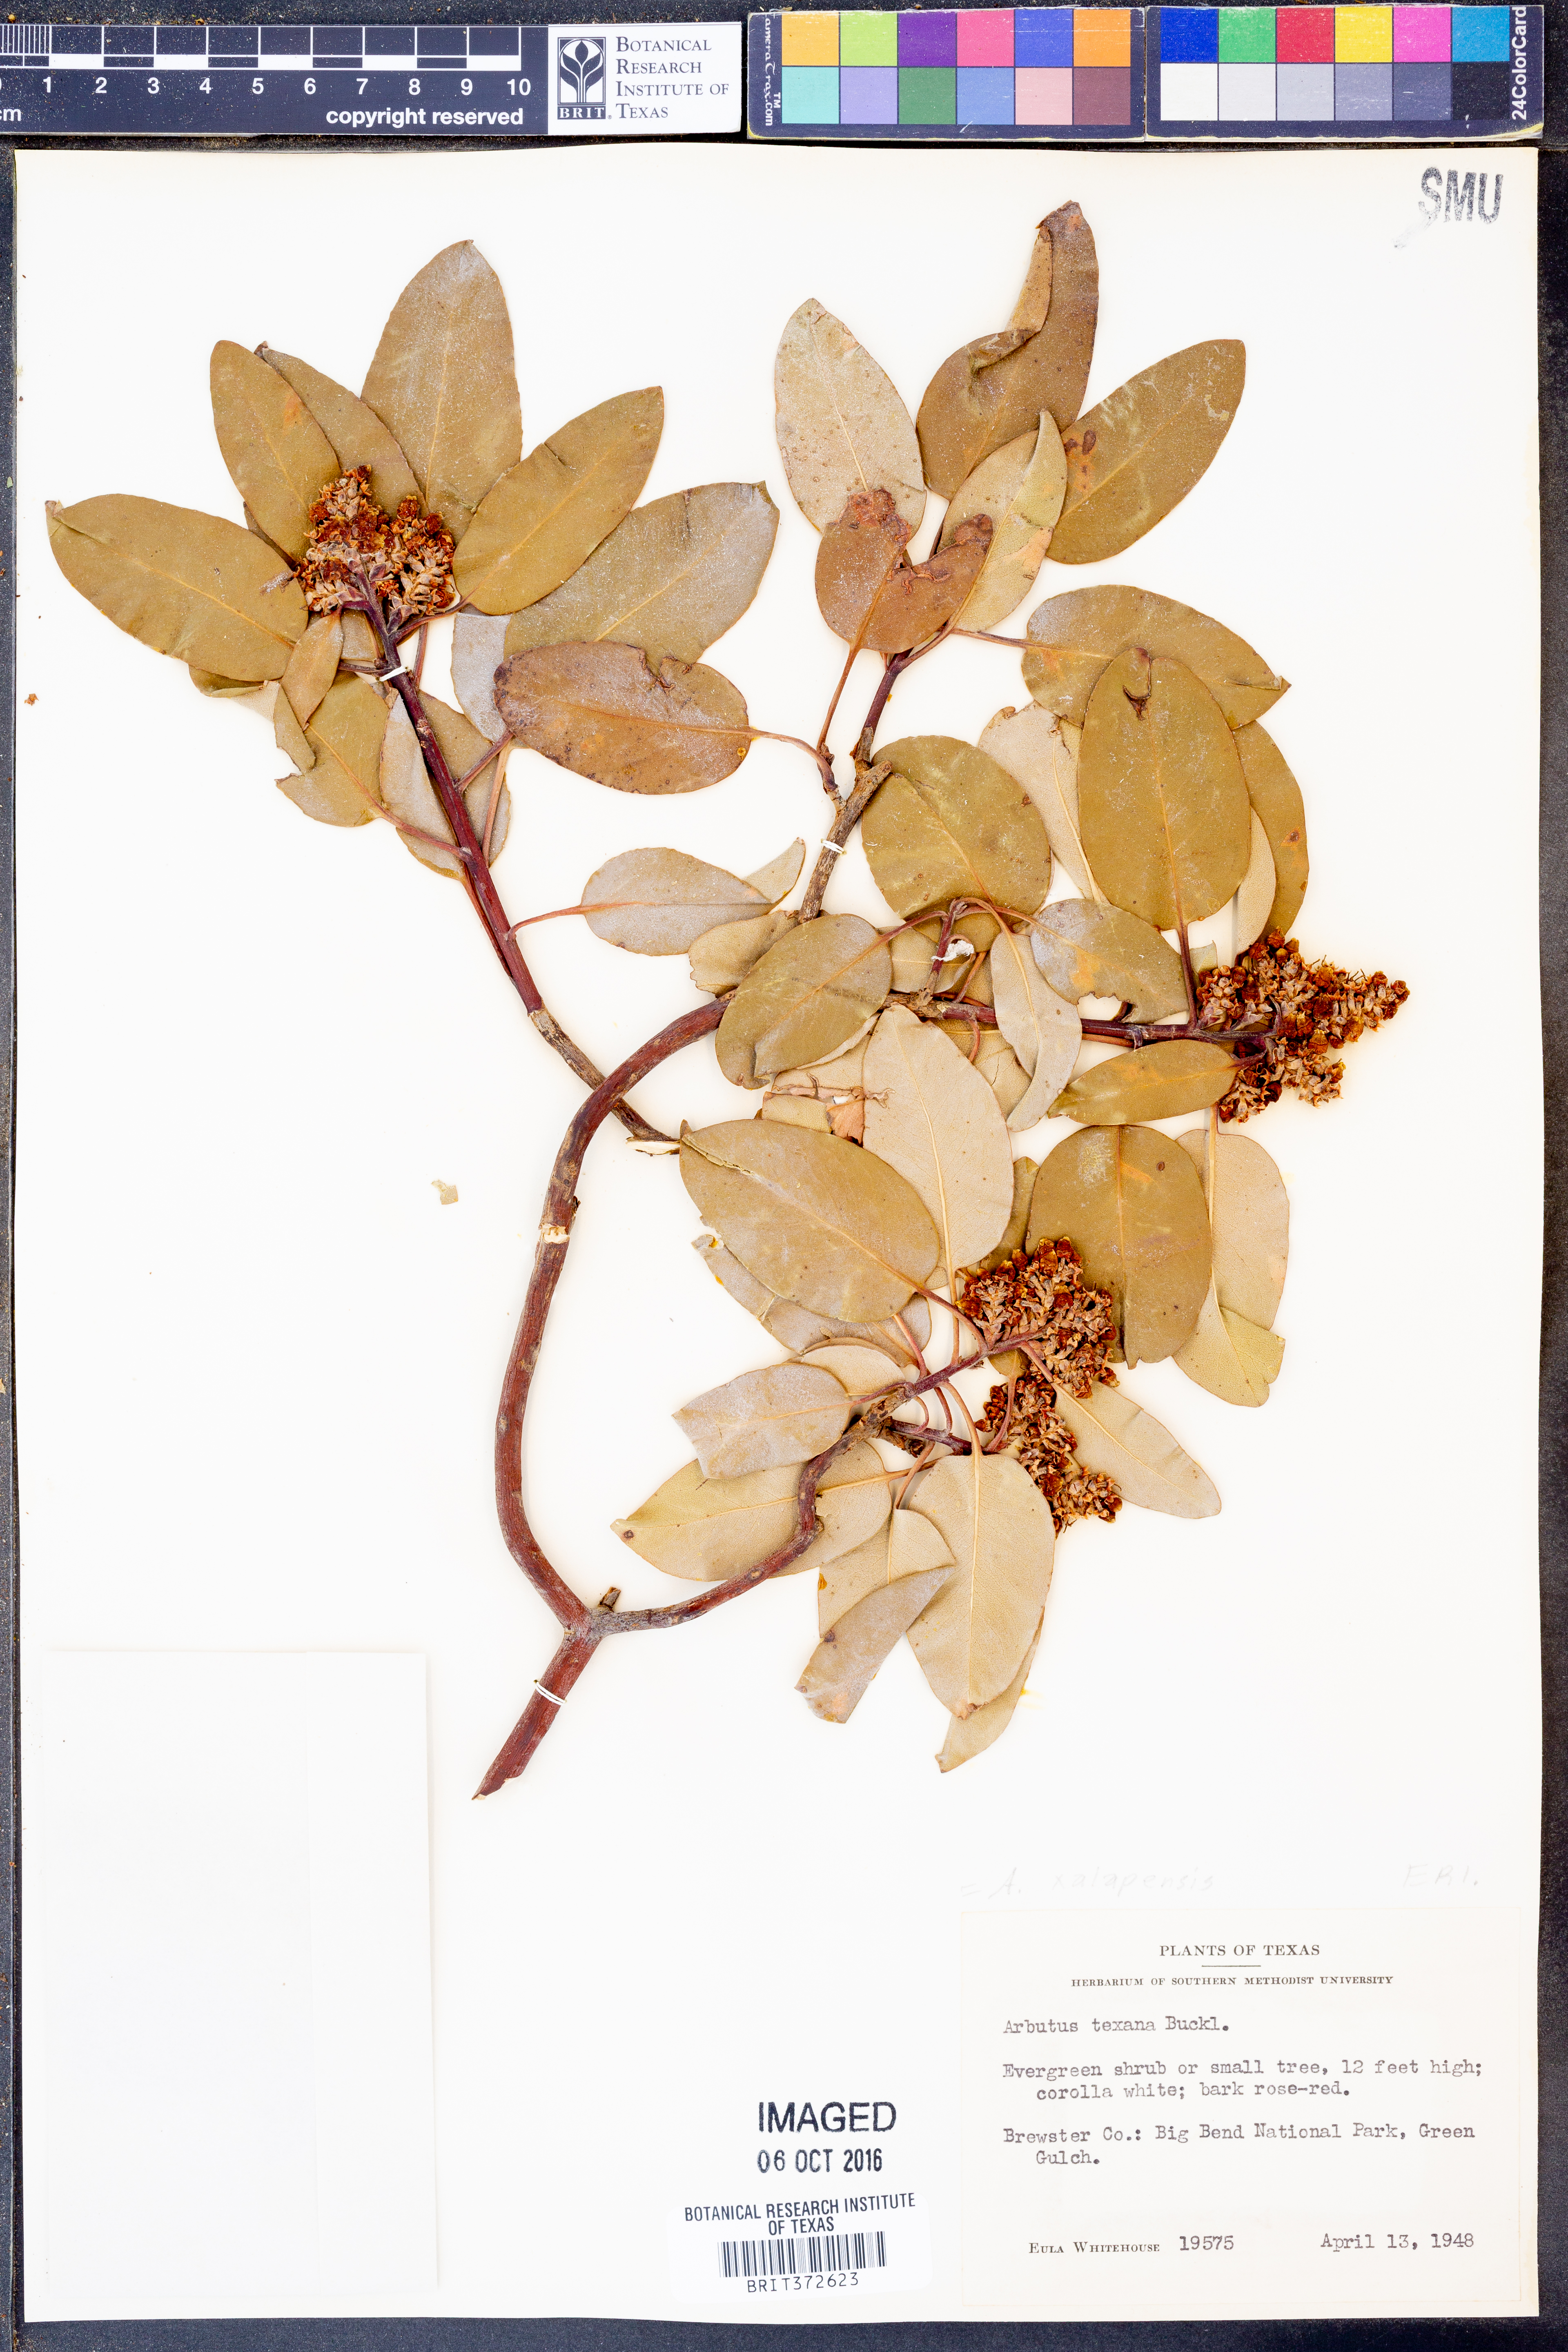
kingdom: Plantae
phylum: Tracheophyta
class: Magnoliopsida
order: Ericales
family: Ericaceae
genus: Arbutus
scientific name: Arbutus xalapensis
